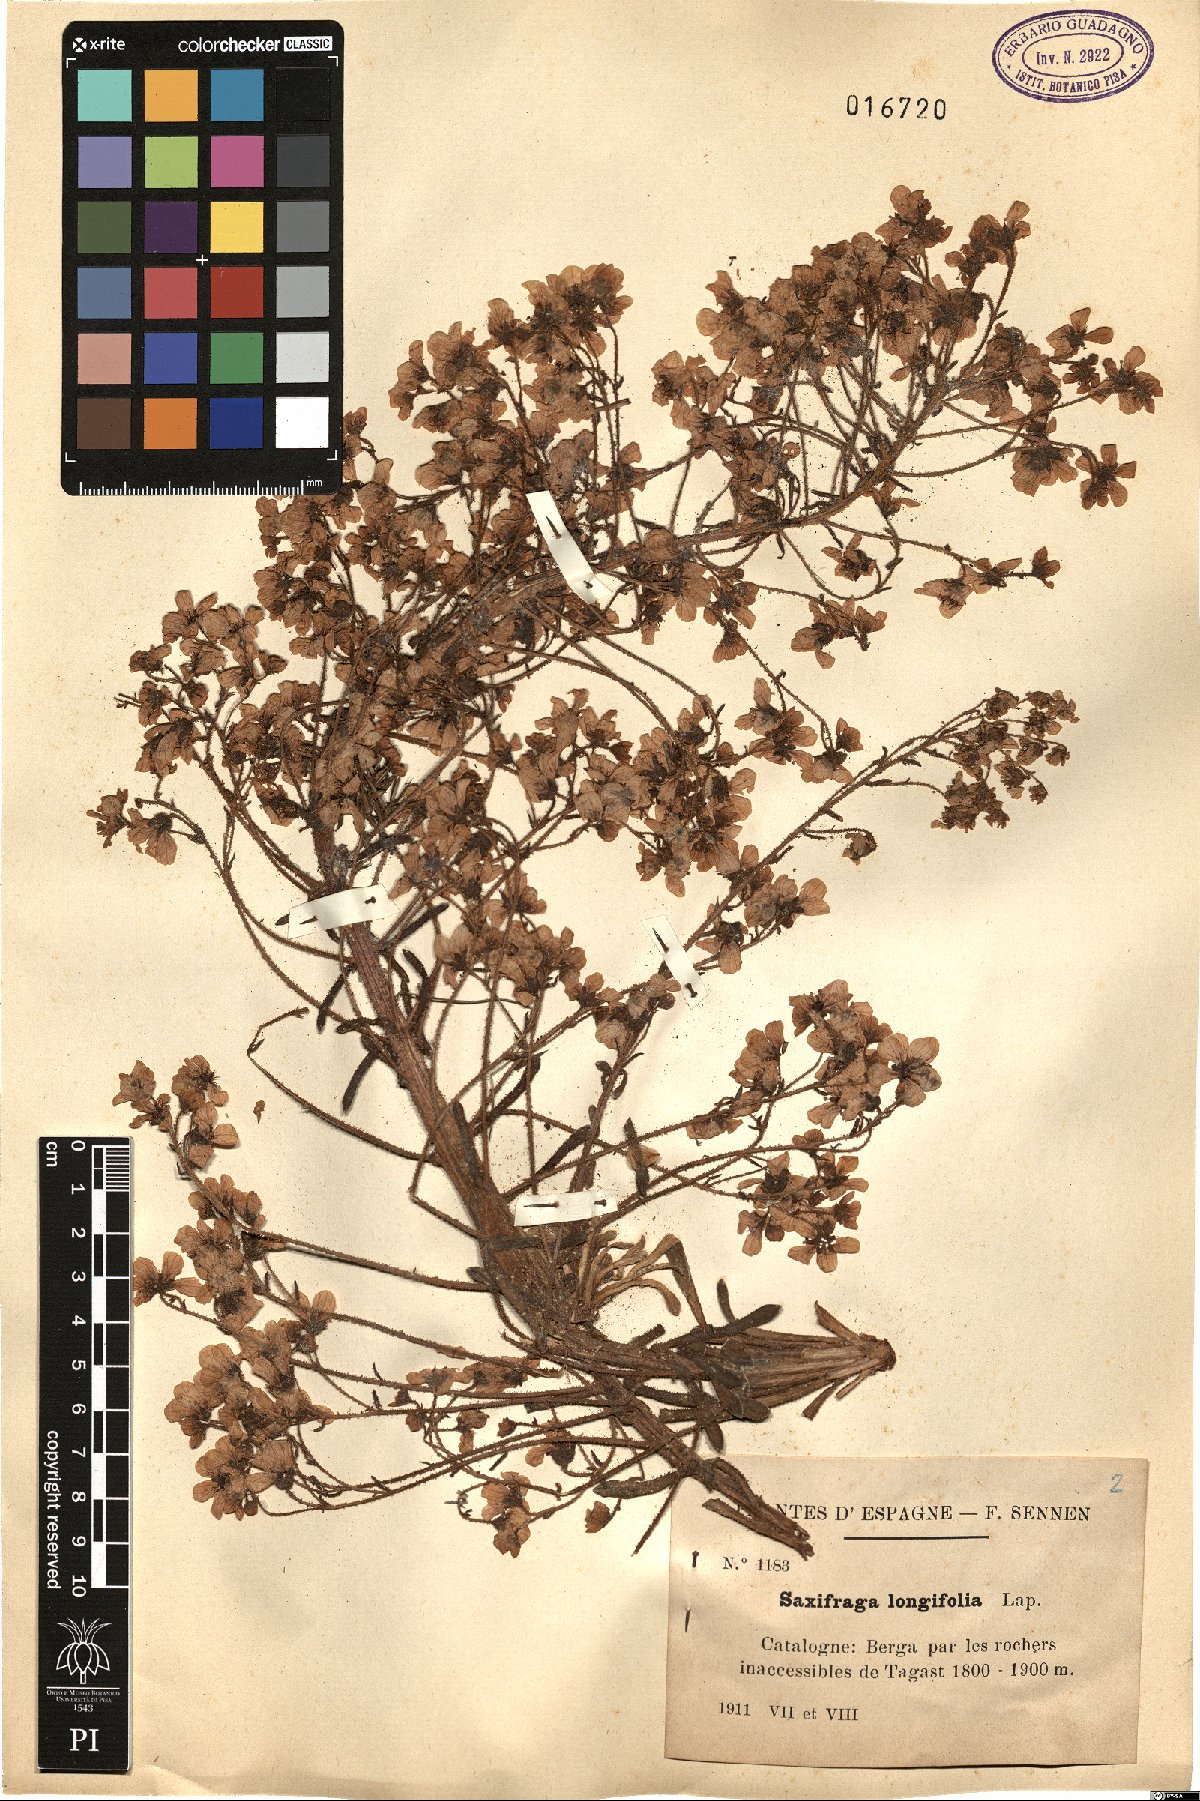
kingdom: Plantae
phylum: Tracheophyta
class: Magnoliopsida
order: Saxifragales
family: Saxifragaceae
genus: Saxifraga
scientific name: Saxifraga longifolia
